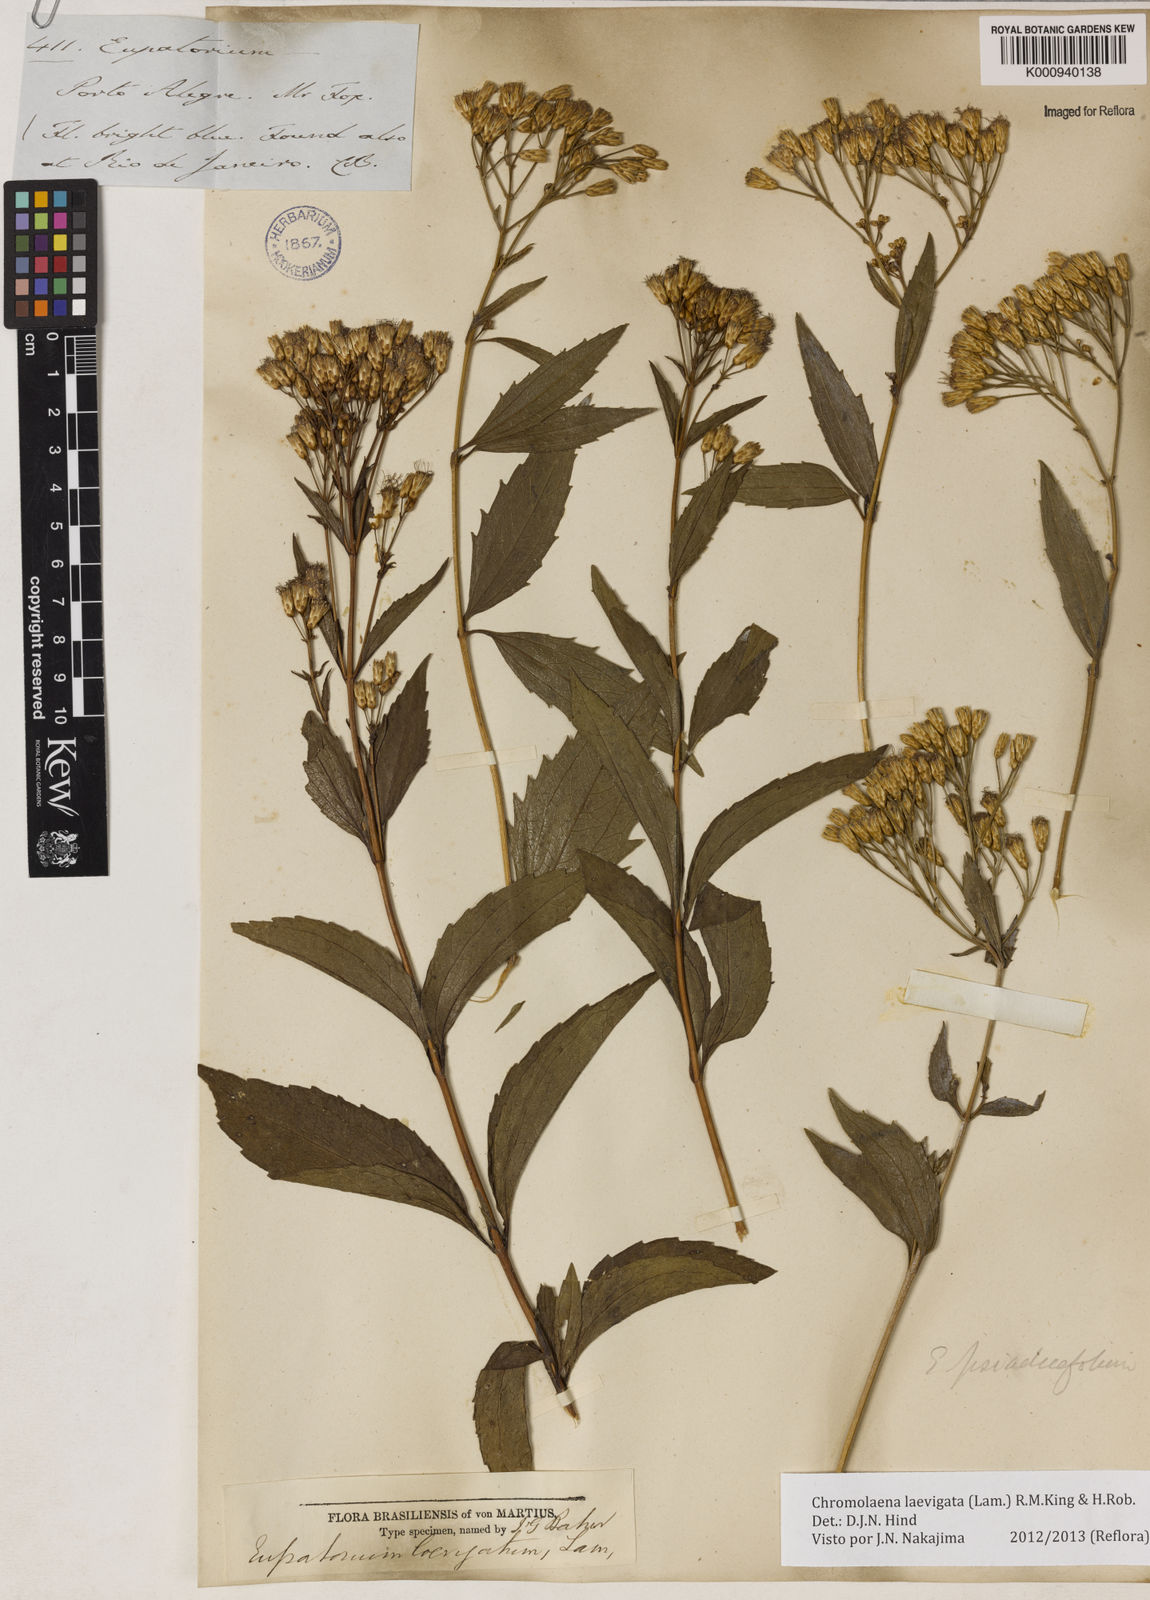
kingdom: Plantae
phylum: Tracheophyta
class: Magnoliopsida
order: Asterales
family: Asteraceae
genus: Chromolaena
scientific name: Chromolaena laevigata
